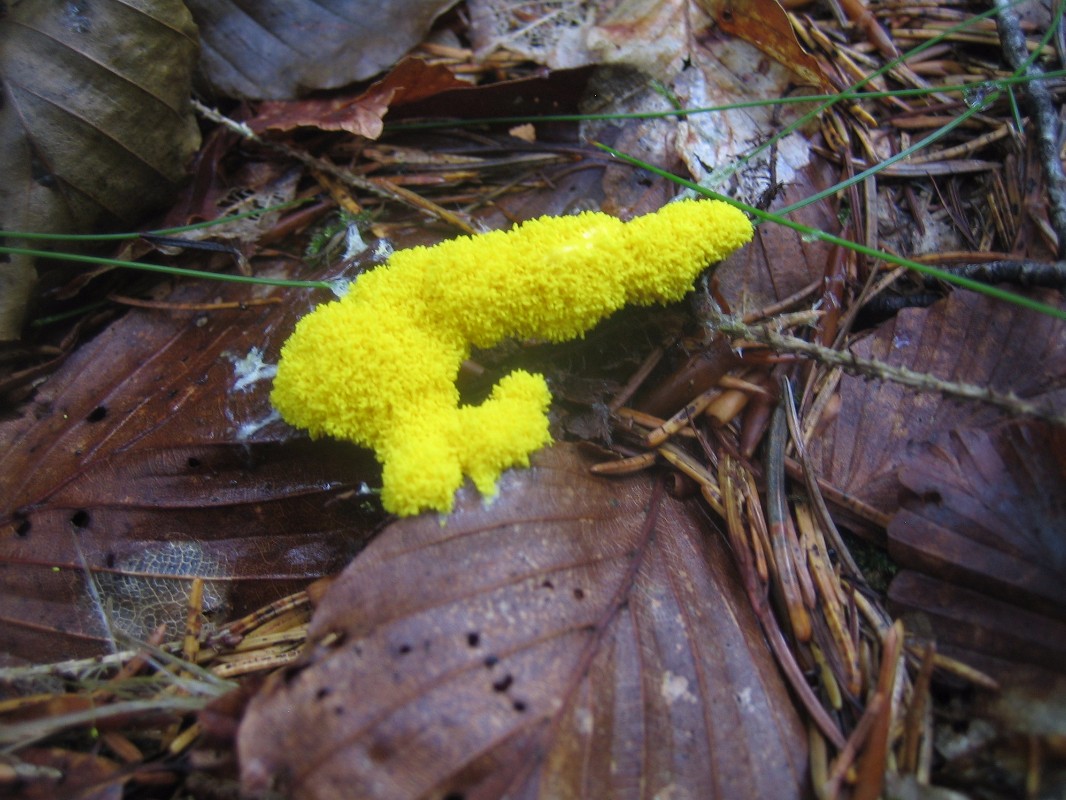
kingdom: Protozoa
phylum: Mycetozoa
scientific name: Mycetozoa
